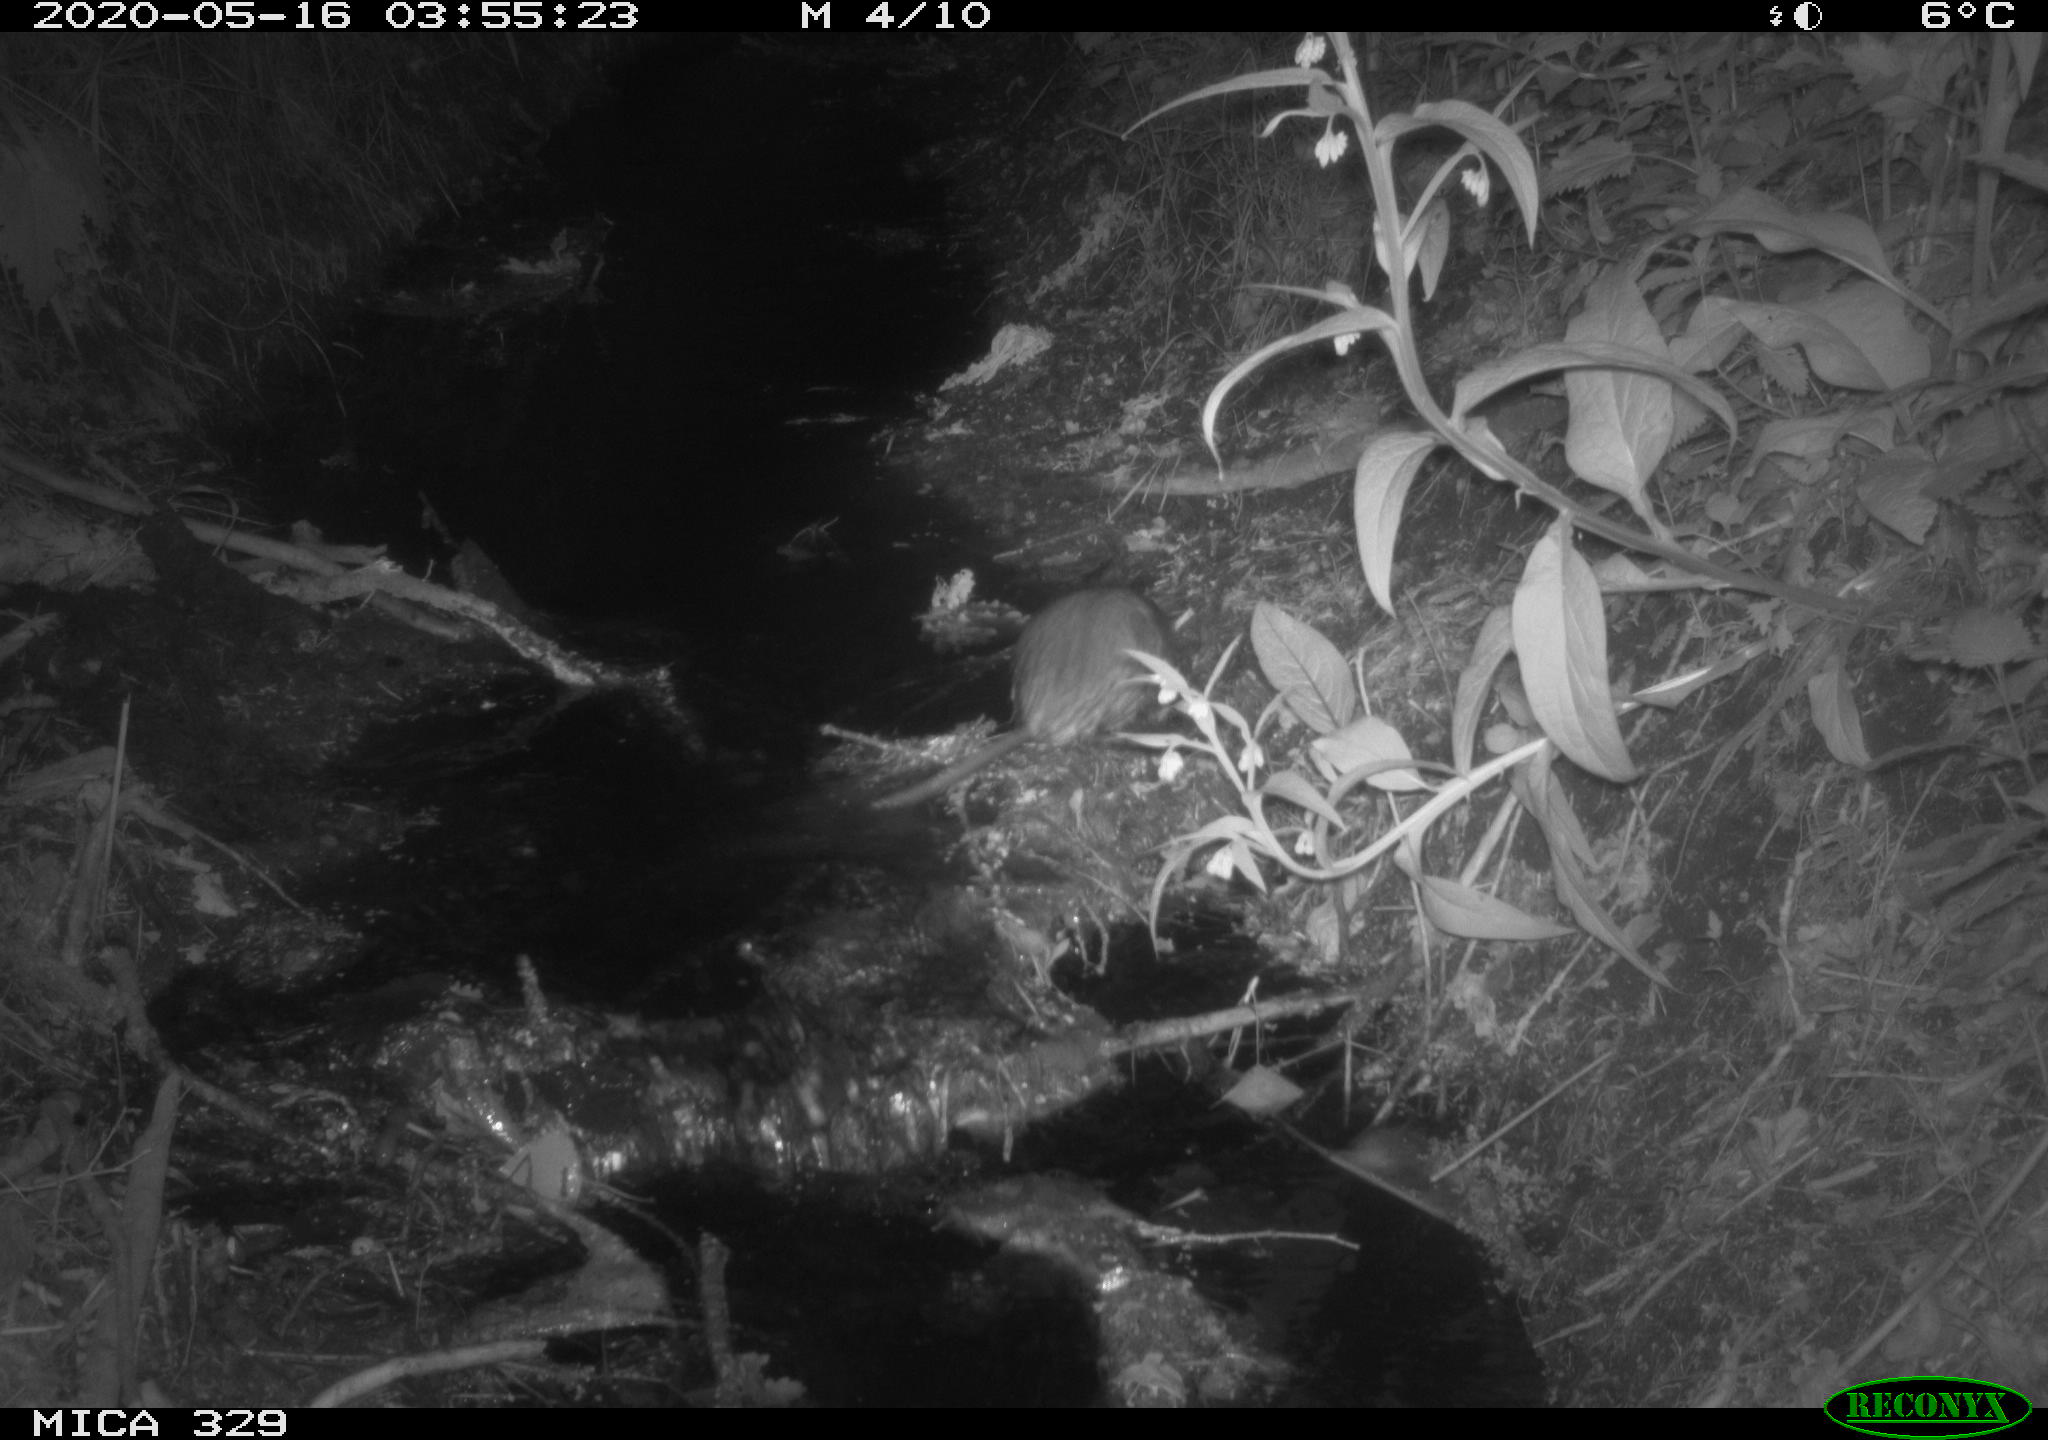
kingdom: Animalia
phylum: Chordata
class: Mammalia
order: Rodentia
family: Cricetidae
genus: Ondatra
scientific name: Ondatra zibethicus
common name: Muskrat
